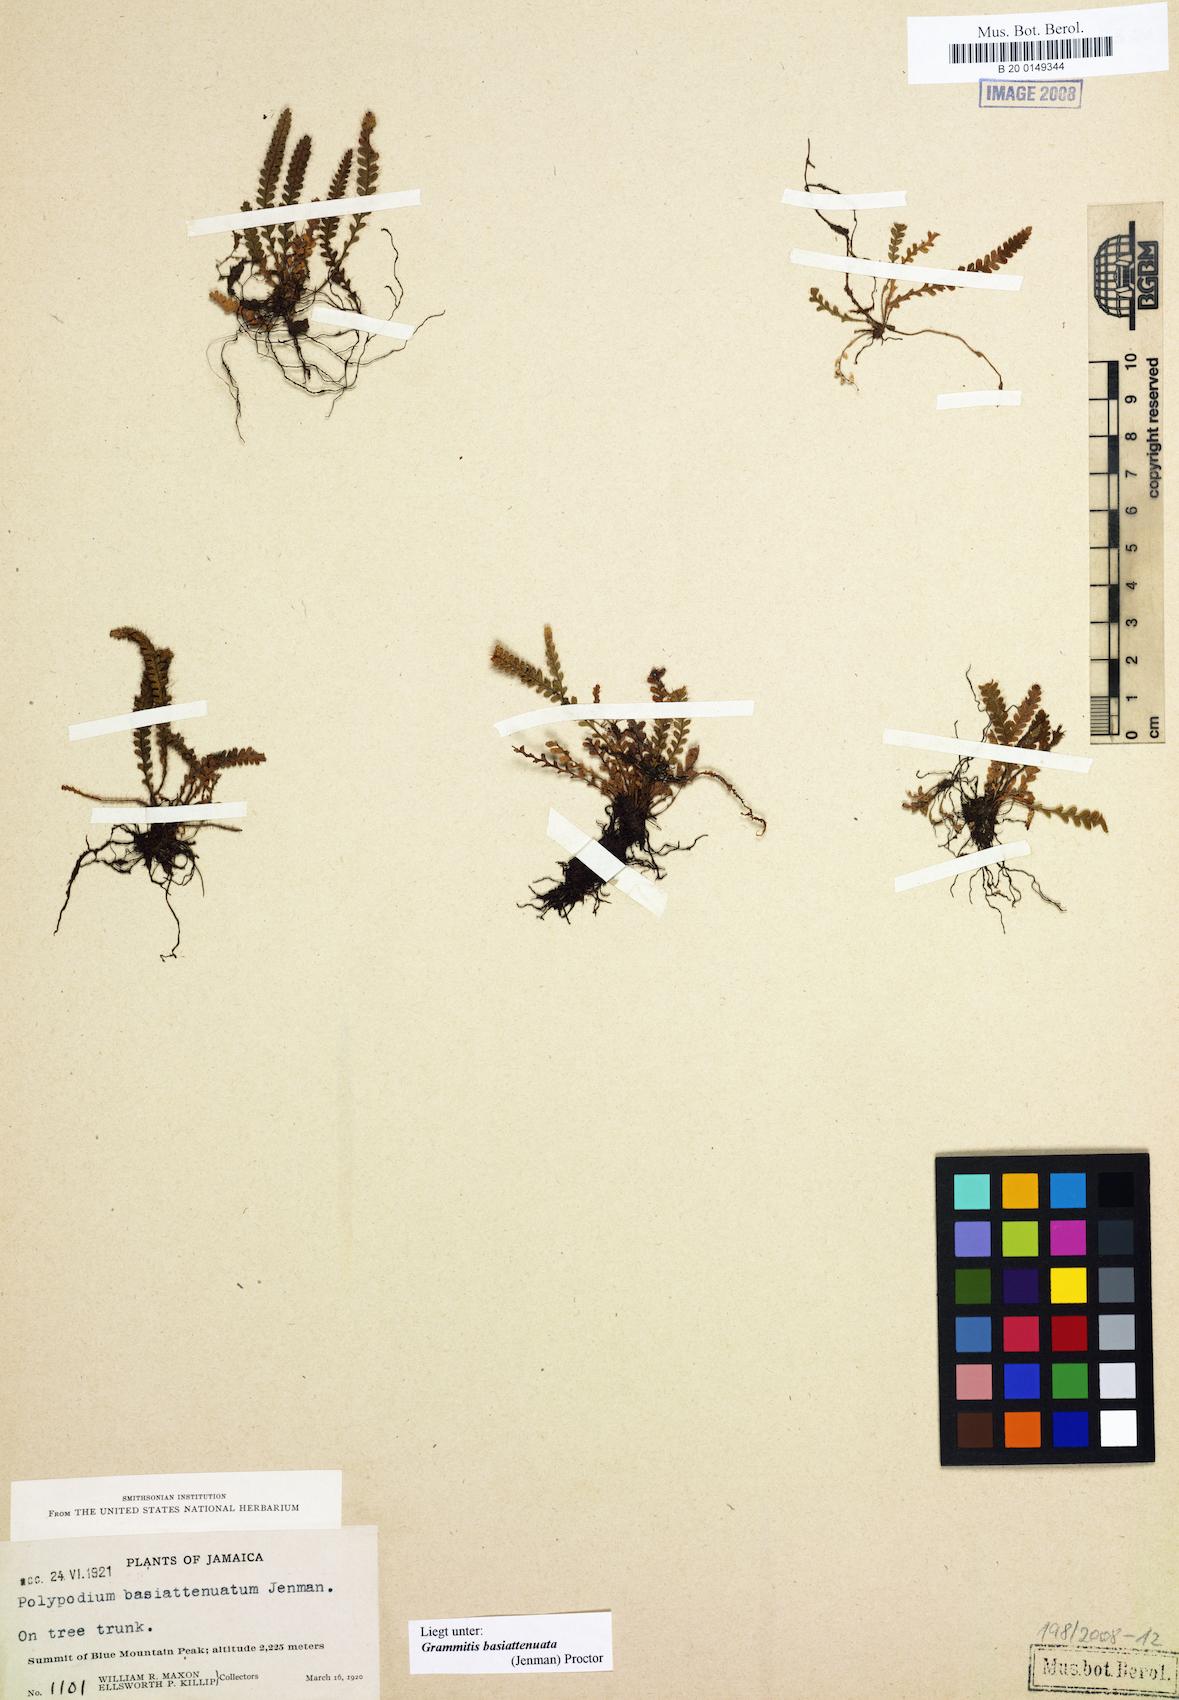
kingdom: Plantae
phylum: Tracheophyta
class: Polypodiopsida
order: Polypodiales
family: Polypodiaceae
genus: Moranopteris
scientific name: Moranopteris basiattenuata
